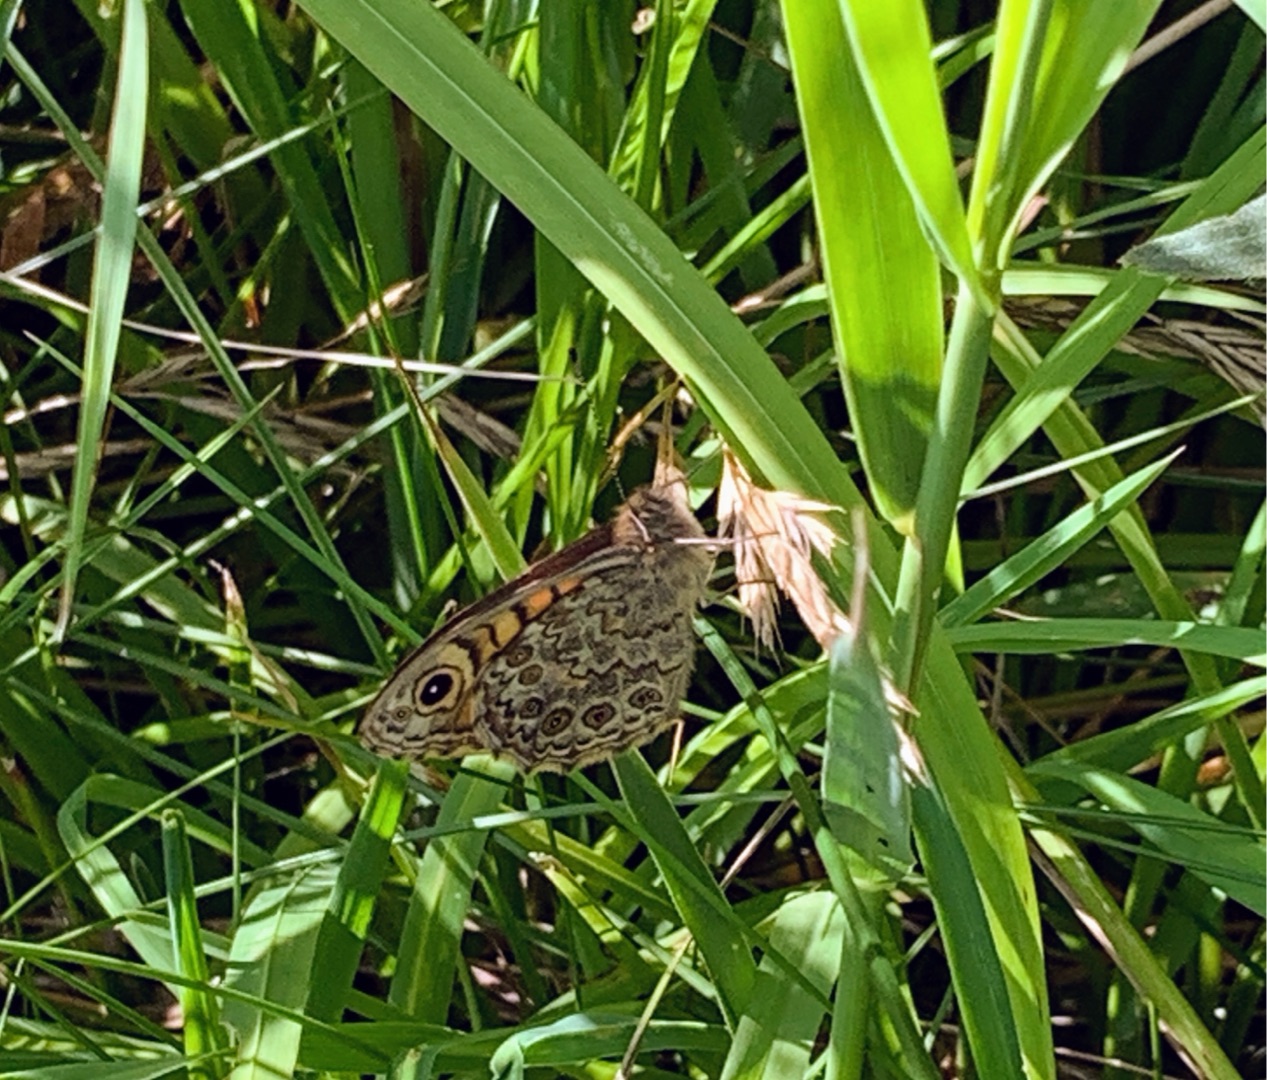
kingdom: Animalia
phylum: Arthropoda
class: Insecta
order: Lepidoptera
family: Nymphalidae
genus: Pararge
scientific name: Pararge Lasiommata megera
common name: Vejrandøje
